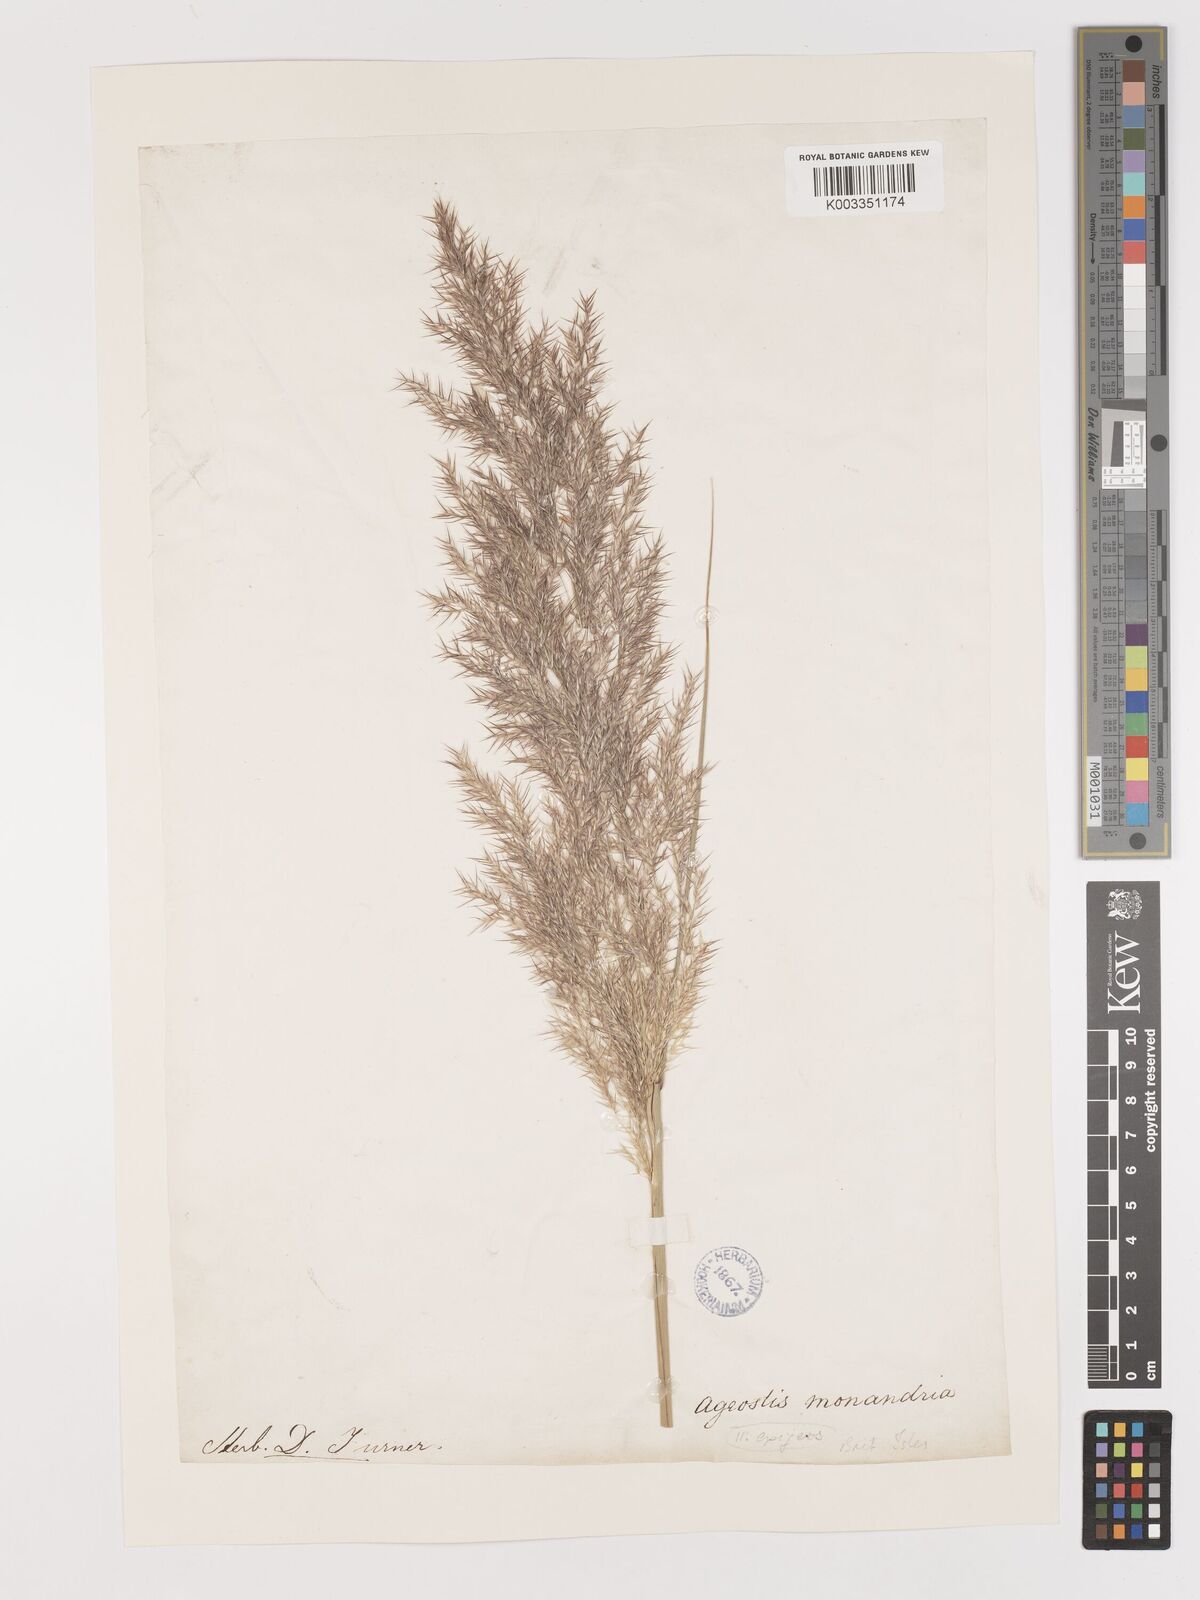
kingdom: Plantae
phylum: Tracheophyta
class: Liliopsida
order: Poales
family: Poaceae
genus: Calamagrostis
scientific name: Calamagrostis
